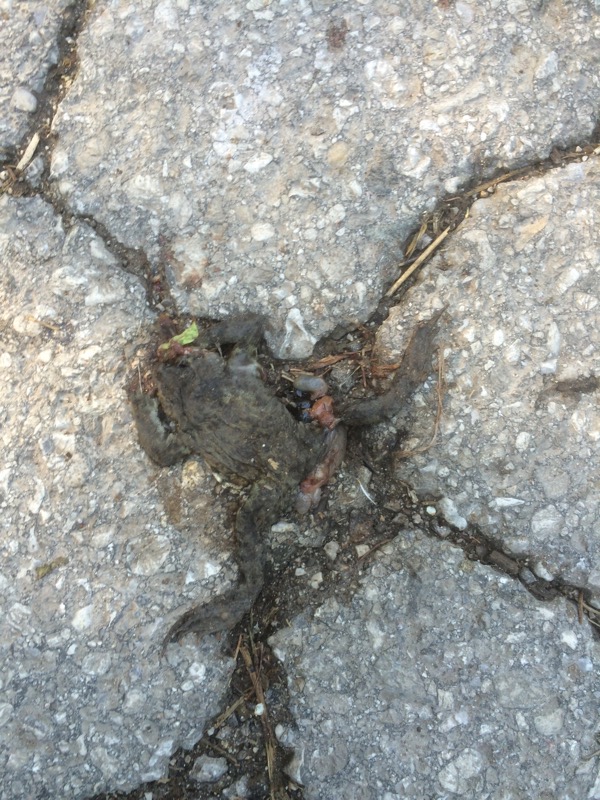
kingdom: Animalia
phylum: Chordata
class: Amphibia
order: Anura
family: Bufonidae
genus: Bufo
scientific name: Bufo bufo
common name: Common toad
